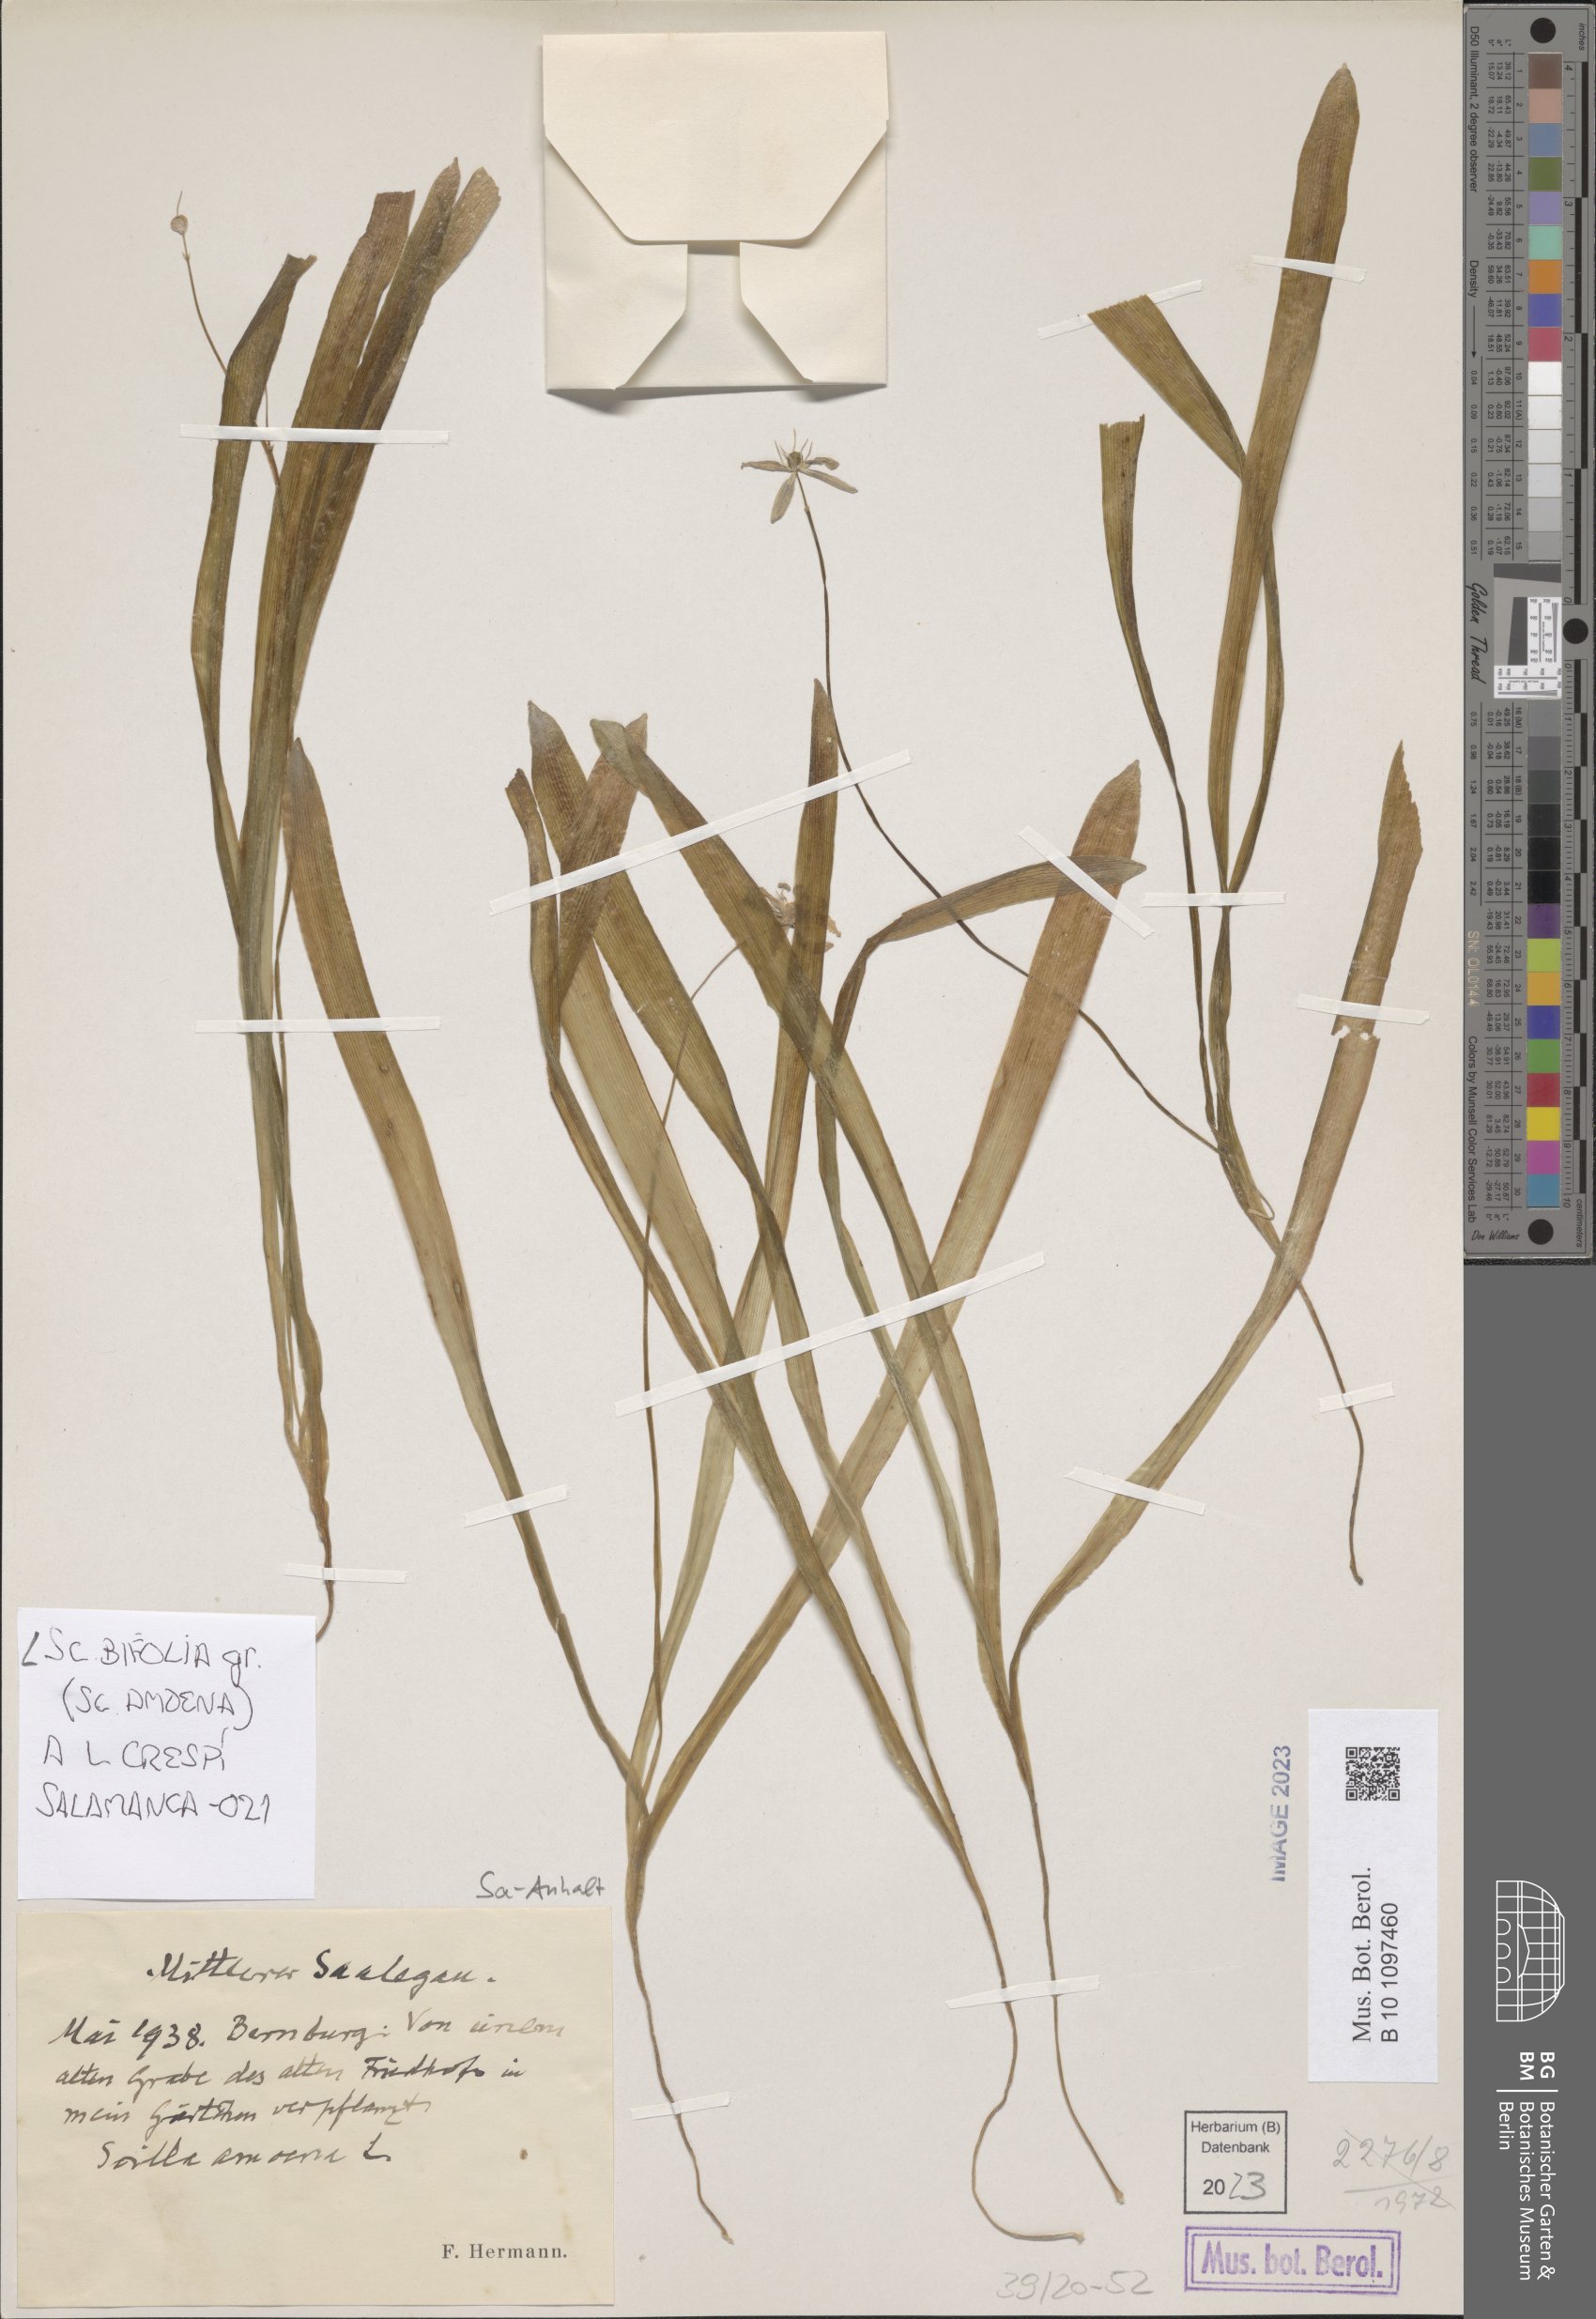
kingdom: Plantae
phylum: Tracheophyta
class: Liliopsida
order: Asparagales
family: Asparagaceae
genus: Scilla
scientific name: Scilla bifolia
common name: Alpine squill
